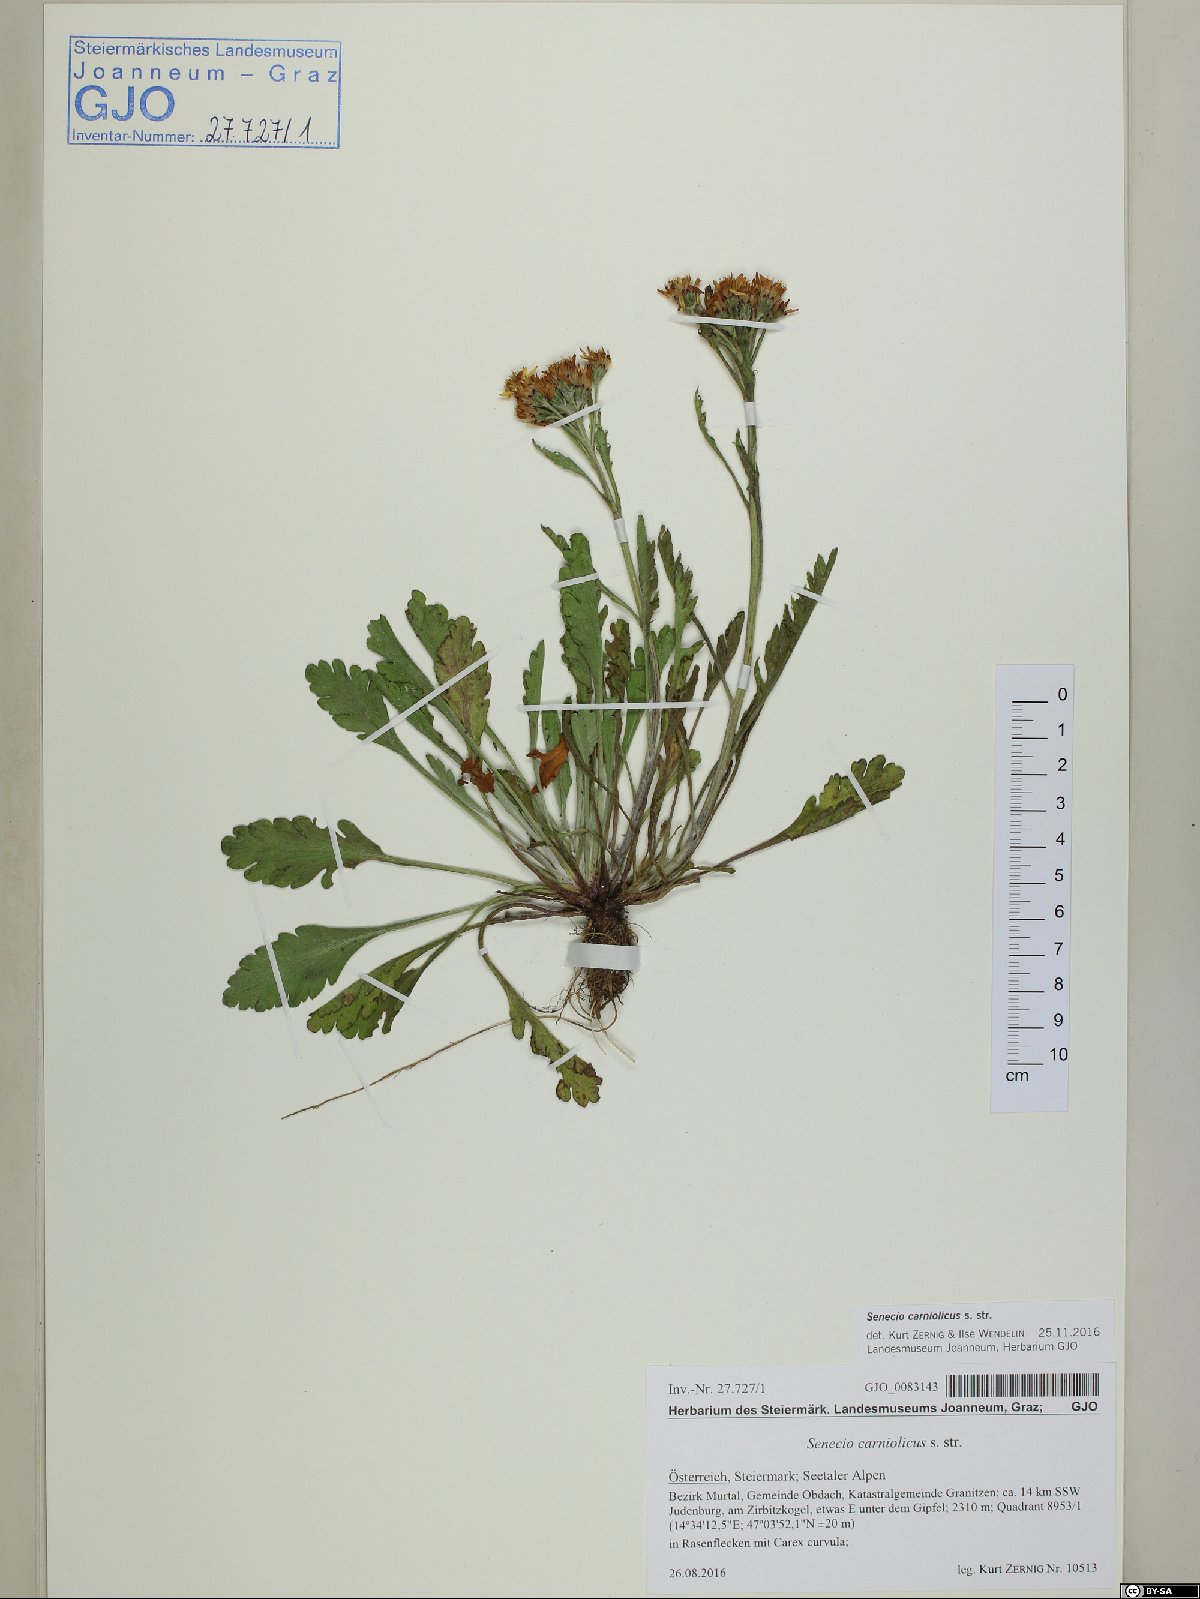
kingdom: Plantae
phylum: Tracheophyta
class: Magnoliopsida
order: Asterales
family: Asteraceae
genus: Jacobaea
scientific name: Jacobaea carniolica
